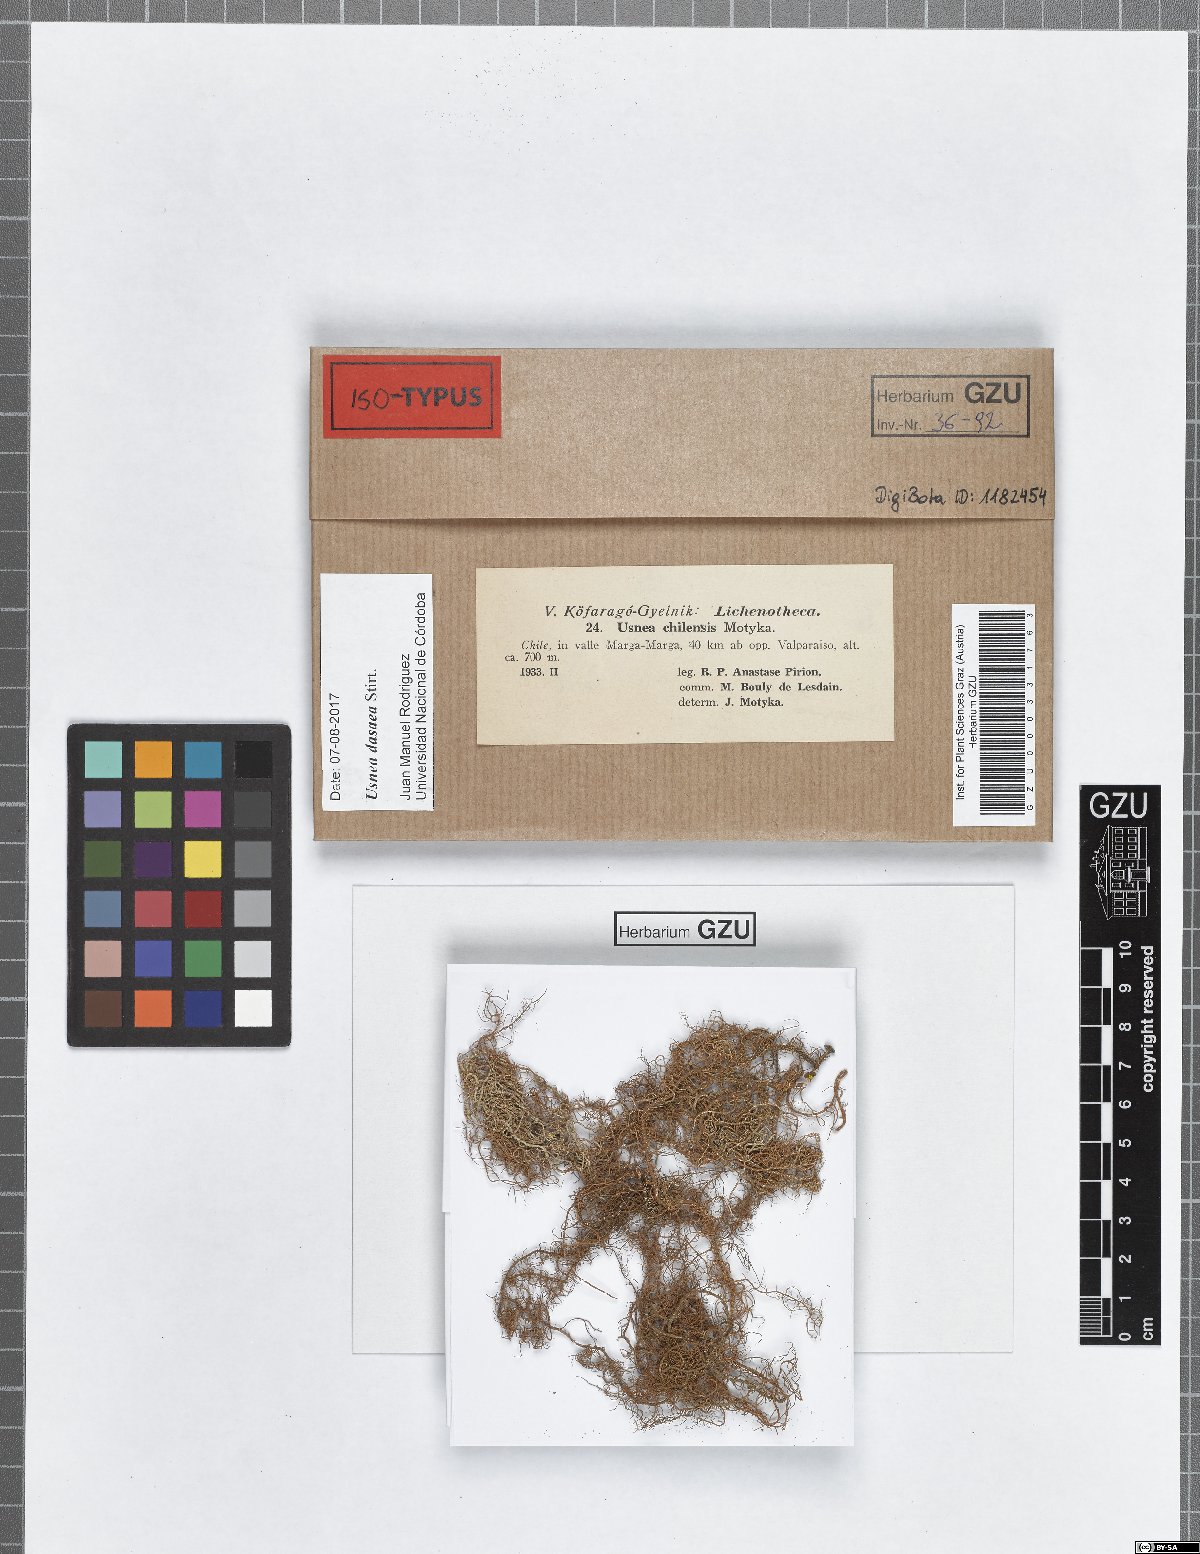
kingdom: Fungi
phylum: Ascomycota
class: Lecanoromycetes
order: Lecanorales
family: Parmeliaceae
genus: Usnea
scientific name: Usnea chilensis
